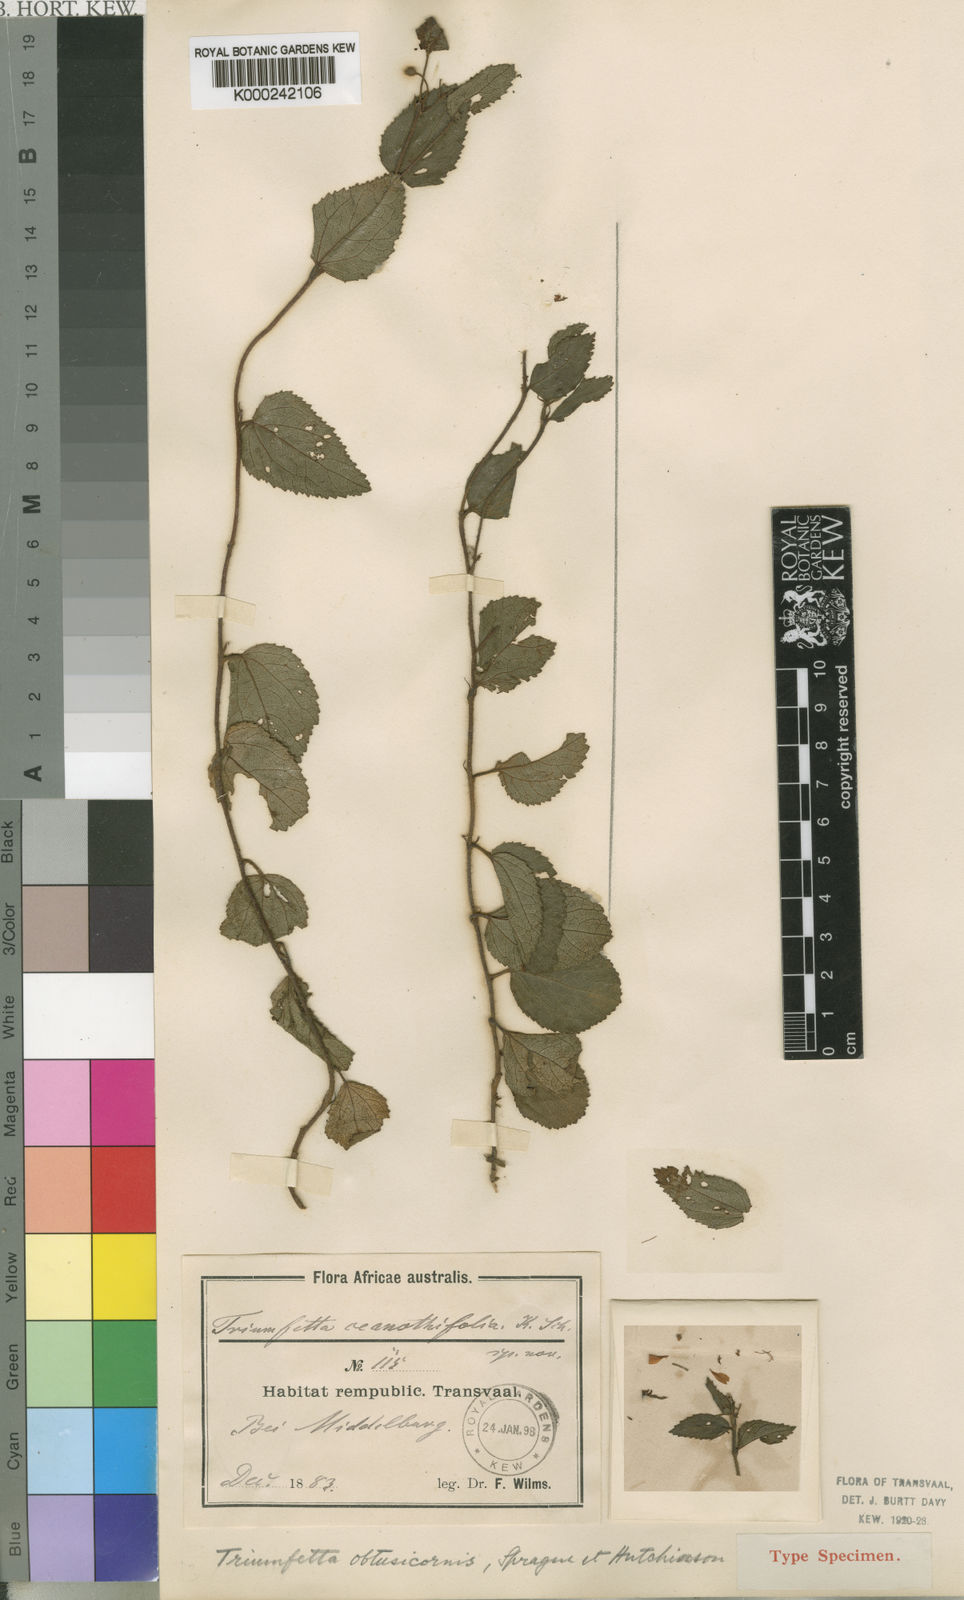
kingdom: Plantae
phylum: Tracheophyta
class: Magnoliopsida
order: Malvales
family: Malvaceae
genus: Triumfetta
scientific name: Triumfetta obtusicornis
